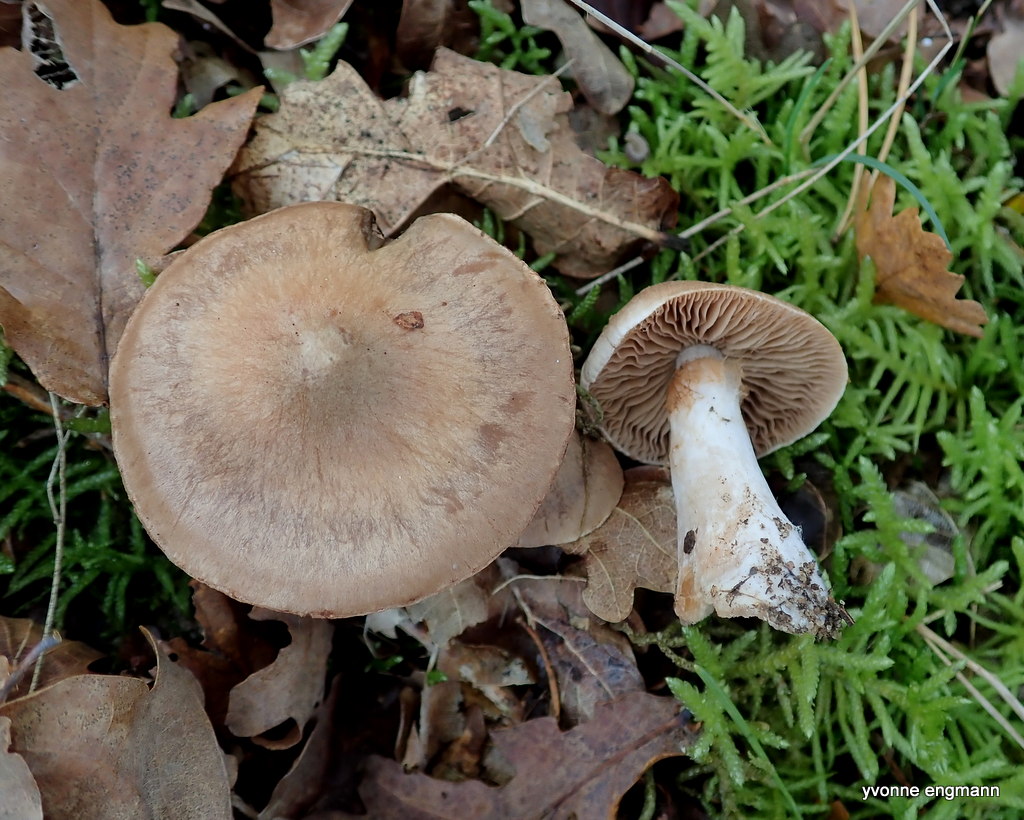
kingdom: Fungi
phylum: Basidiomycota
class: Agaricomycetes
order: Agaricales
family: Cortinariaceae
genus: Cortinarius
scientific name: Cortinarius
